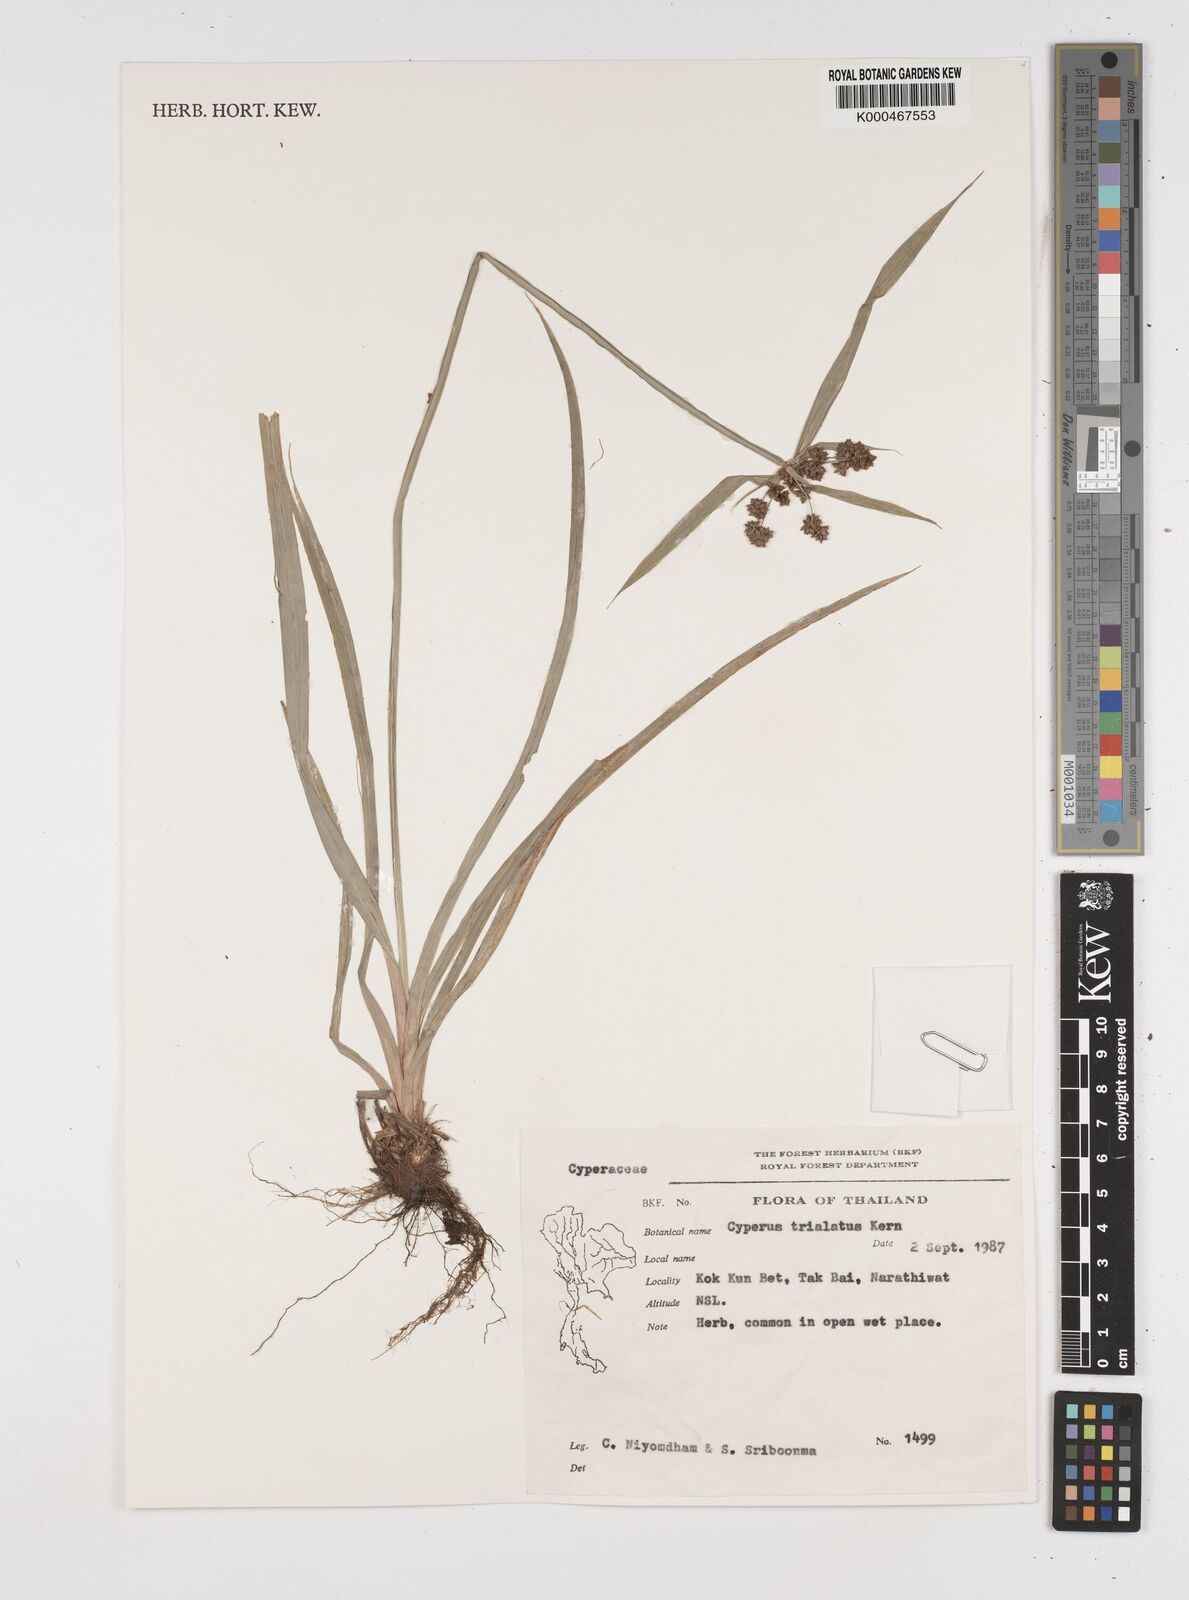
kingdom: Plantae
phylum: Tracheophyta
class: Liliopsida
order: Poales
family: Cyperaceae
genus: Cyperus
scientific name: Cyperus trialatus
